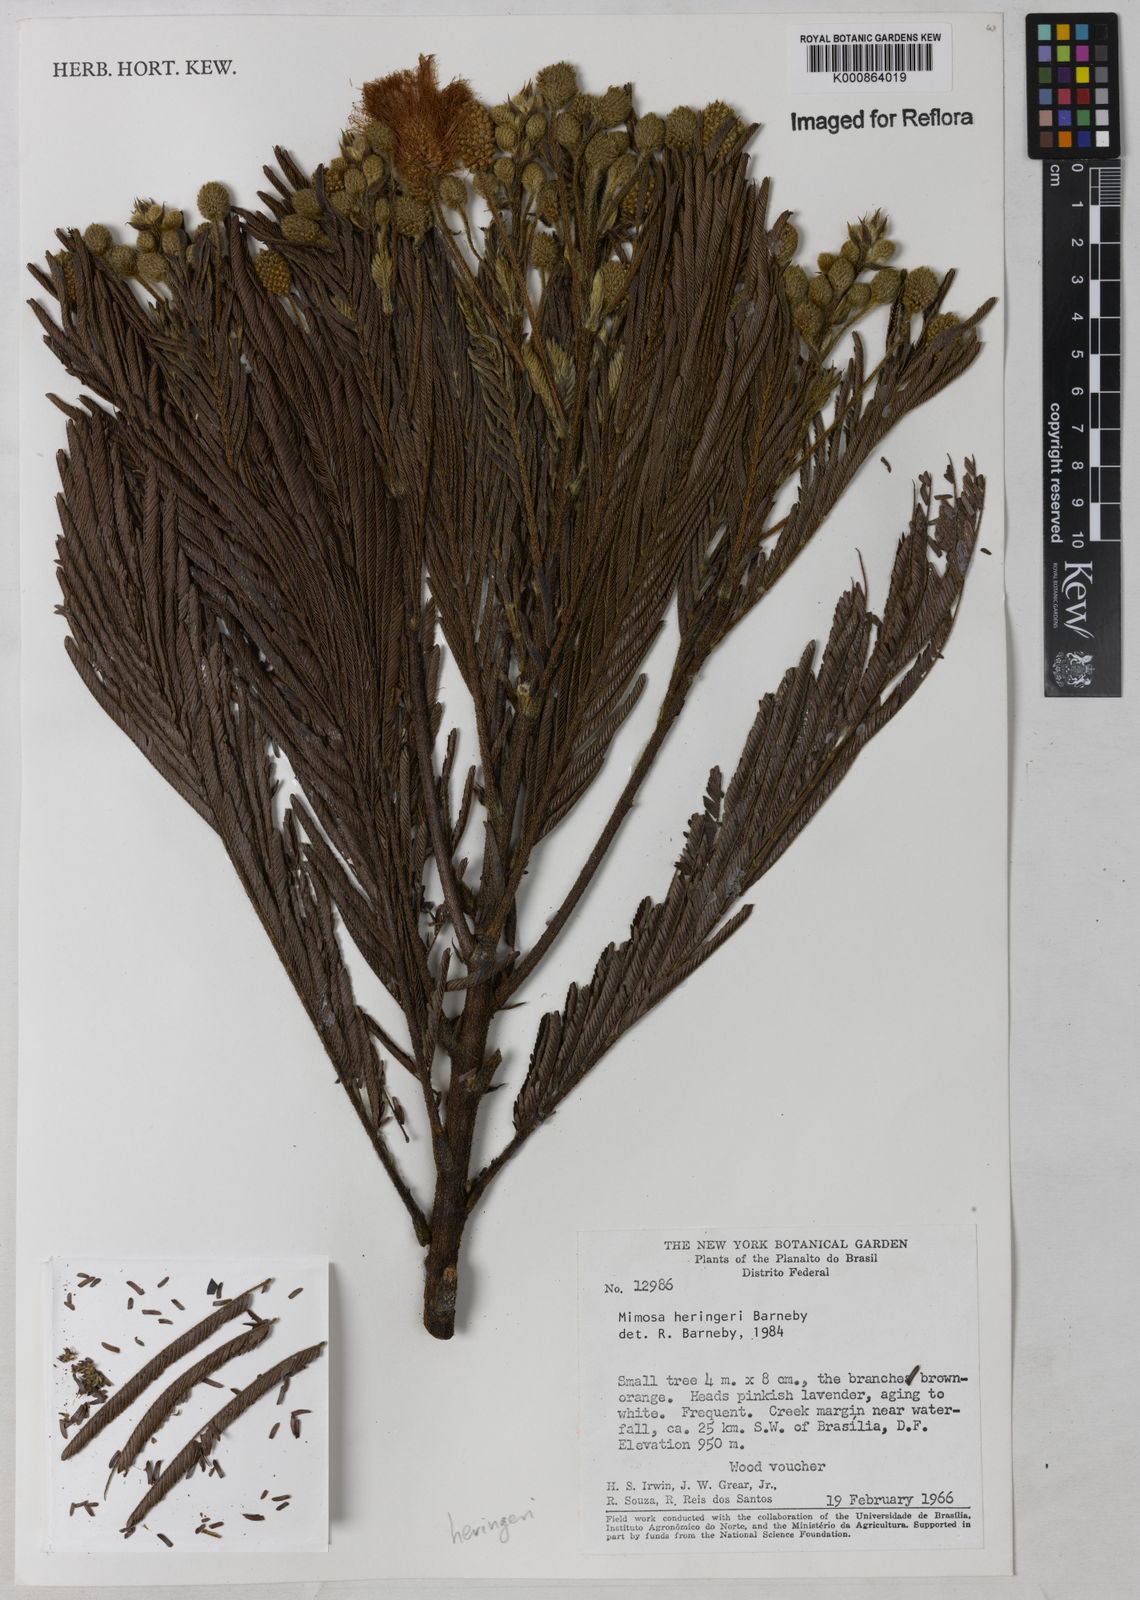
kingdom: Plantae
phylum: Tracheophyta
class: Magnoliopsida
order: Fabales
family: Fabaceae
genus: Mimosa
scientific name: Mimosa heringeri
